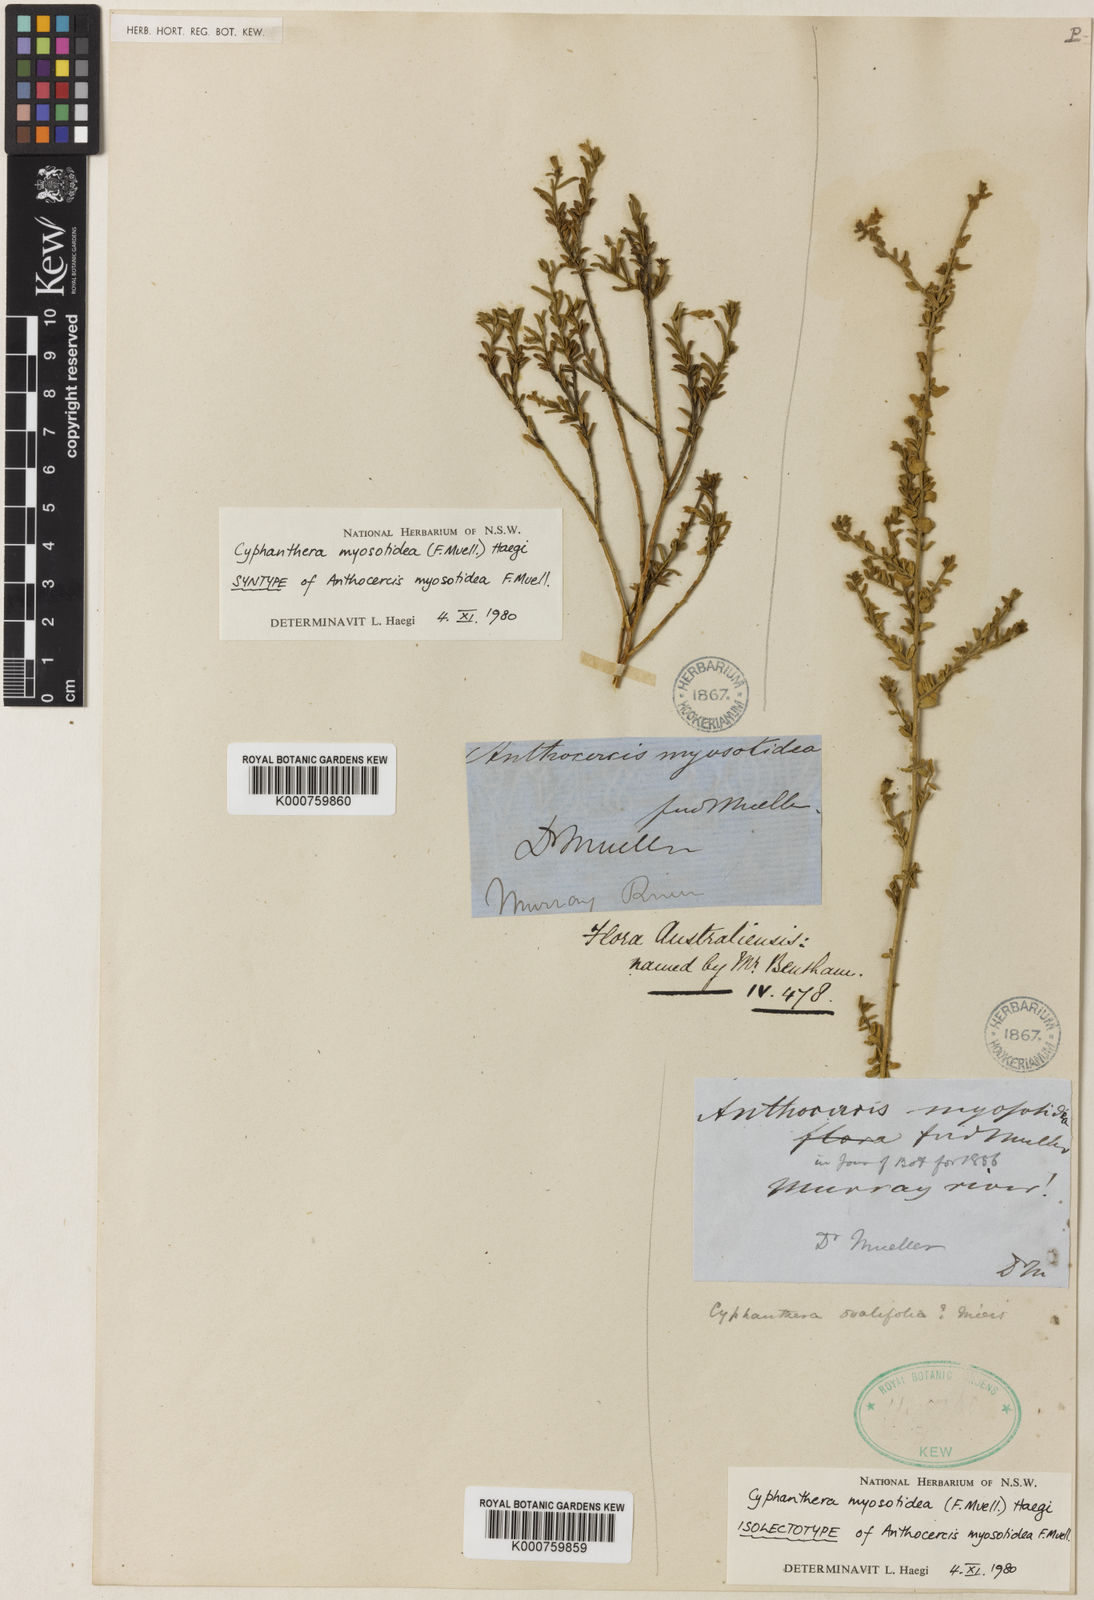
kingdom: Plantae
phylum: Tracheophyta
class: Magnoliopsida
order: Solanales
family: Solanaceae
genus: Cyphanthera
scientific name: Cyphanthera myosotidea
